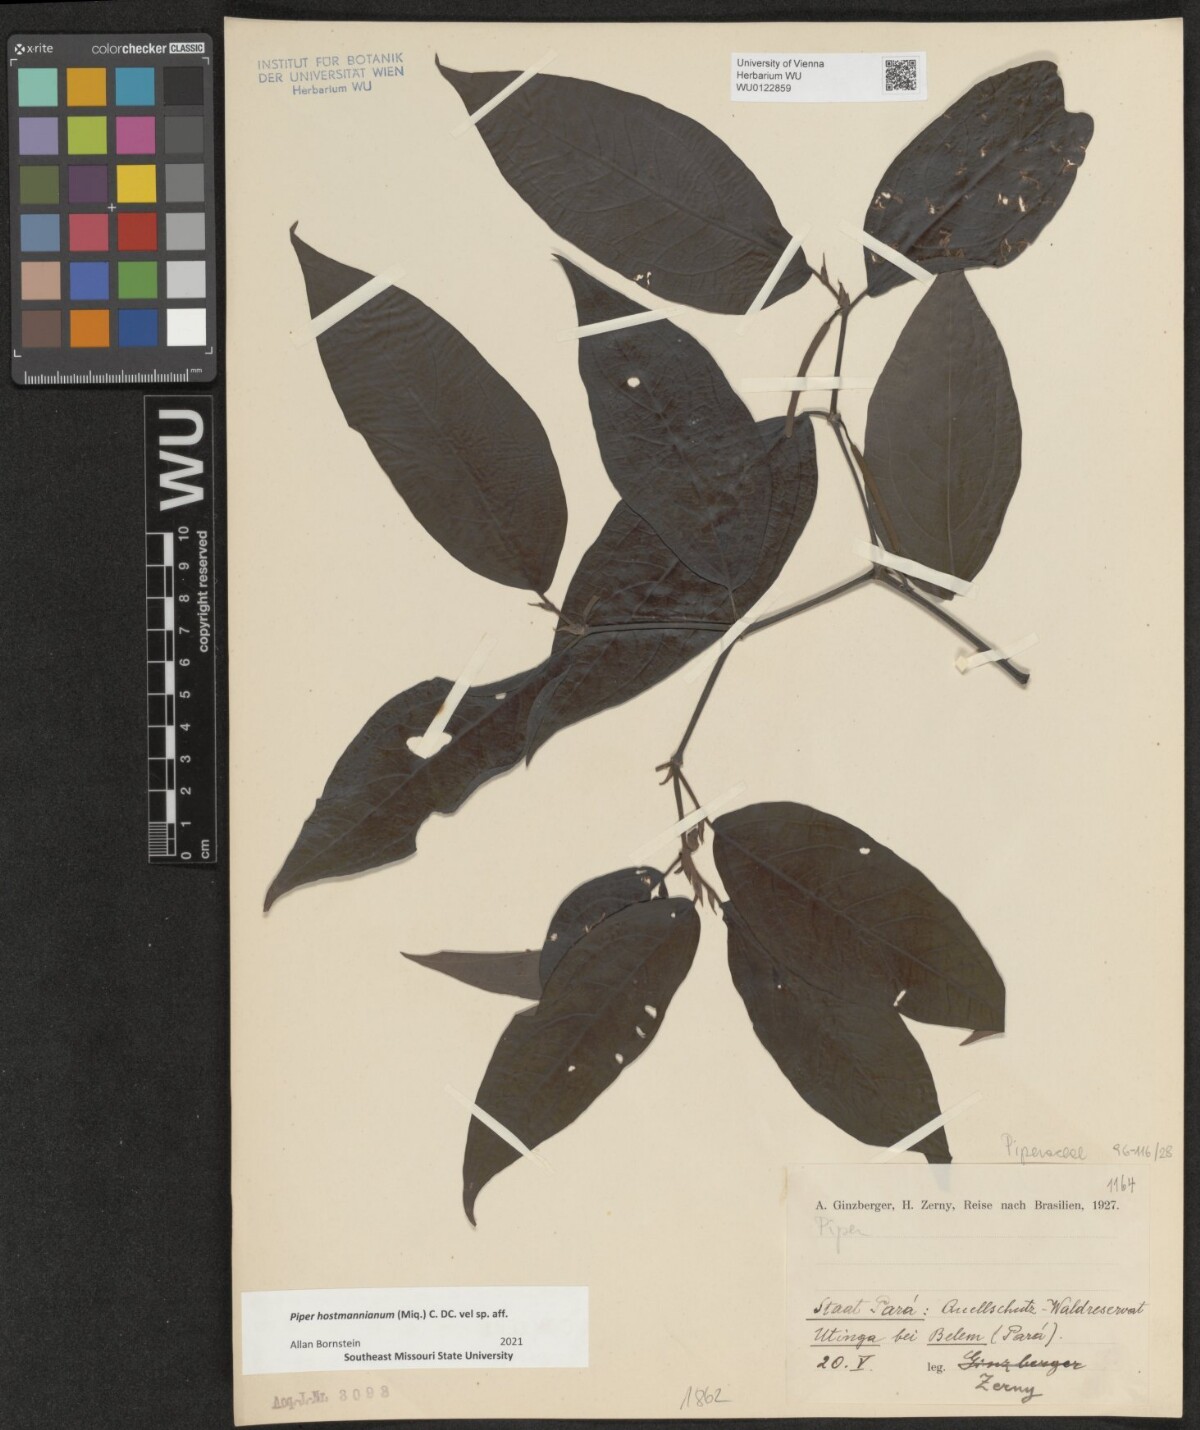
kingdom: Plantae
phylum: Tracheophyta
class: Magnoliopsida
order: Piperales
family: Piperaceae
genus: Piper
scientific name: Piper hostmannianum
